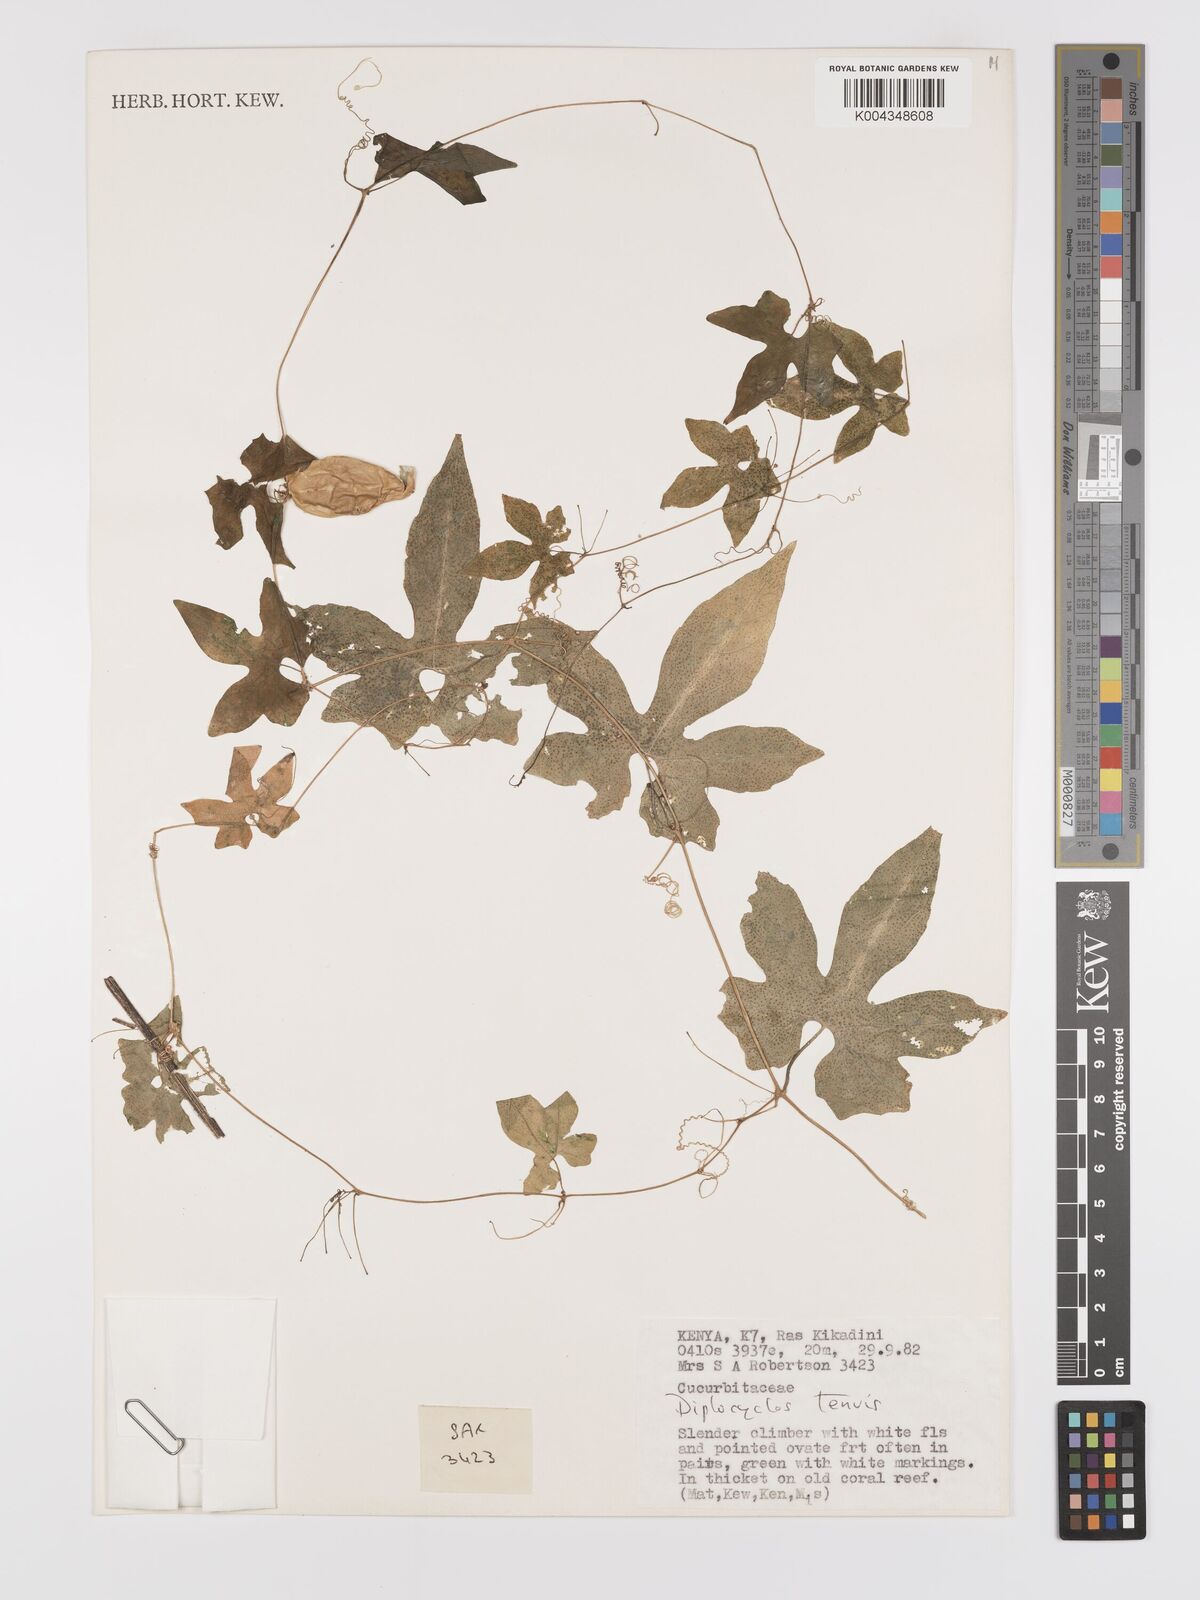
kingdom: Plantae
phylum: Tracheophyta
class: Magnoliopsida
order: Cucurbitales
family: Cucurbitaceae
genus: Diplocyclos
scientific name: Diplocyclos tenuis
